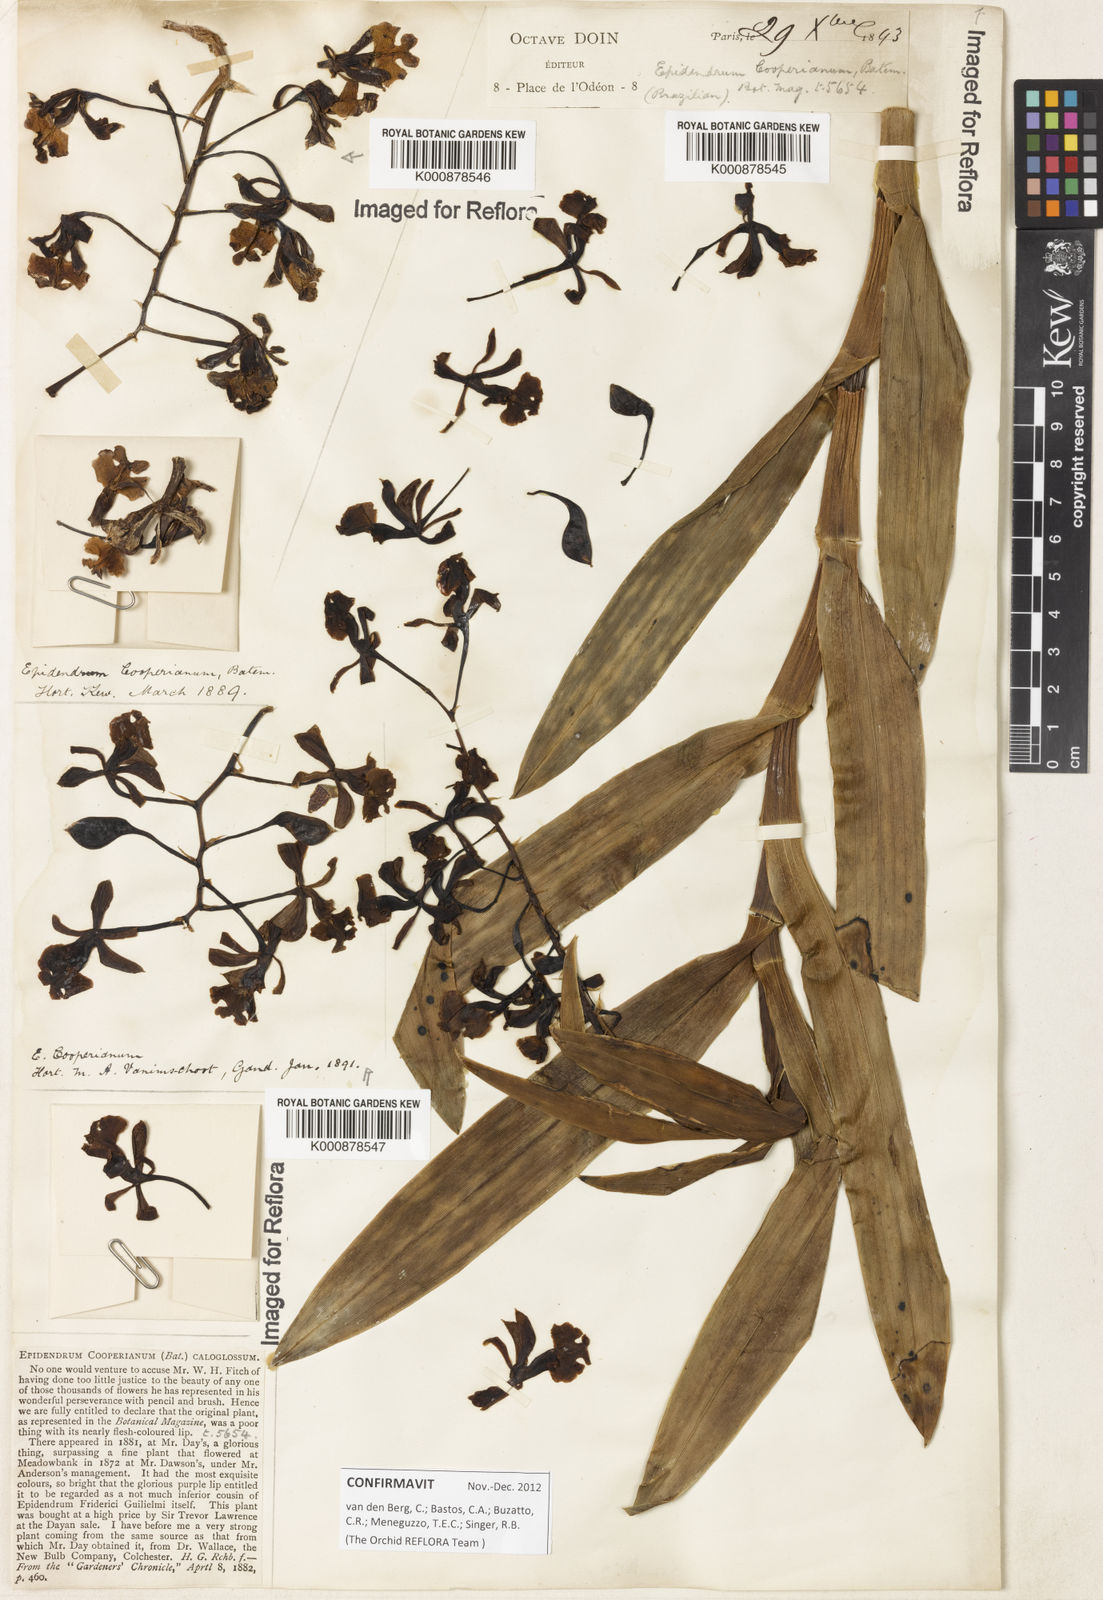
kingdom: Plantae
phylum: Tracheophyta
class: Liliopsida
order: Asparagales
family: Orchidaceae
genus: Epidendrum
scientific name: Epidendrum cooperianum
